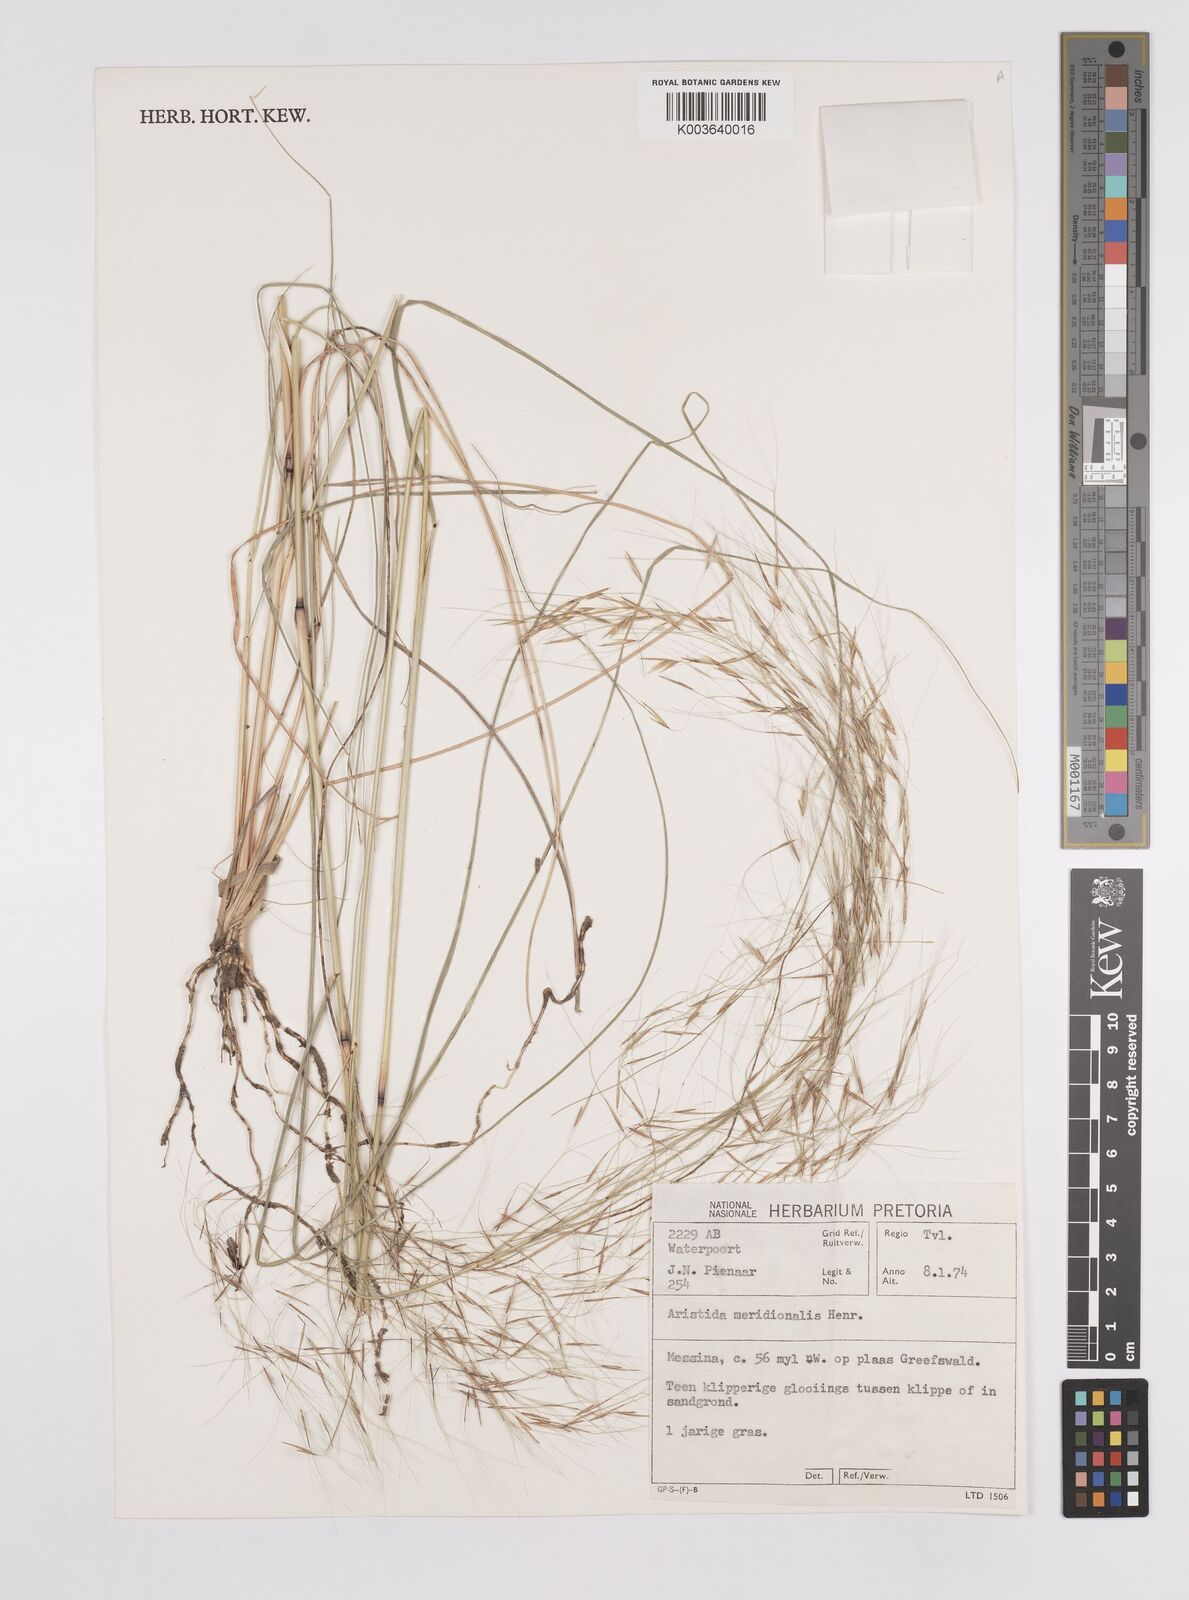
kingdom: Plantae
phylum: Tracheophyta
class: Liliopsida
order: Poales
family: Poaceae
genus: Aristida
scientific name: Aristida meridionalis
